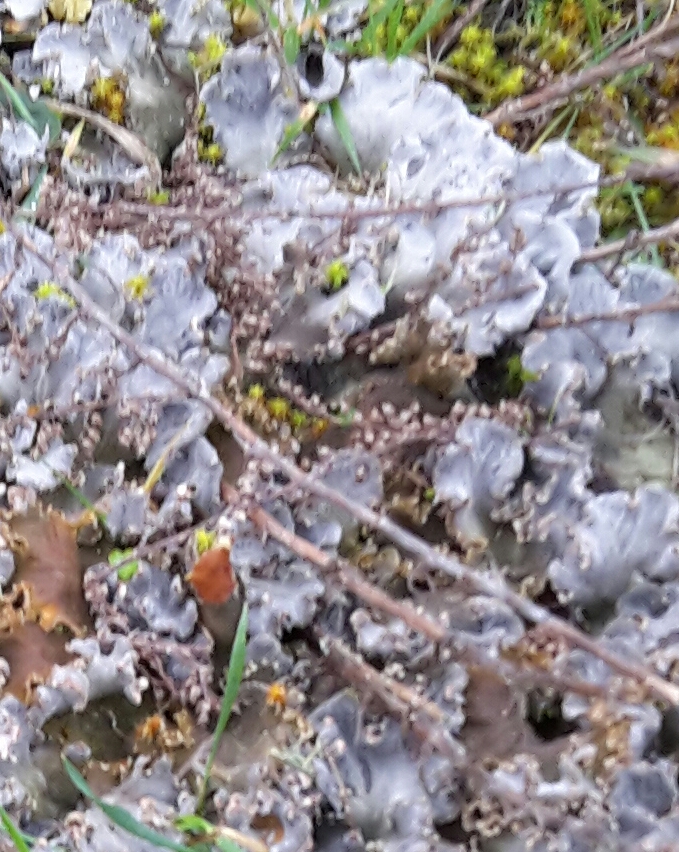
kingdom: Fungi
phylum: Ascomycota
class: Lecanoromycetes
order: Peltigerales
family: Peltigeraceae
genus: Peltigera
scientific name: Peltigera canina
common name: hunde-skjoldlav
